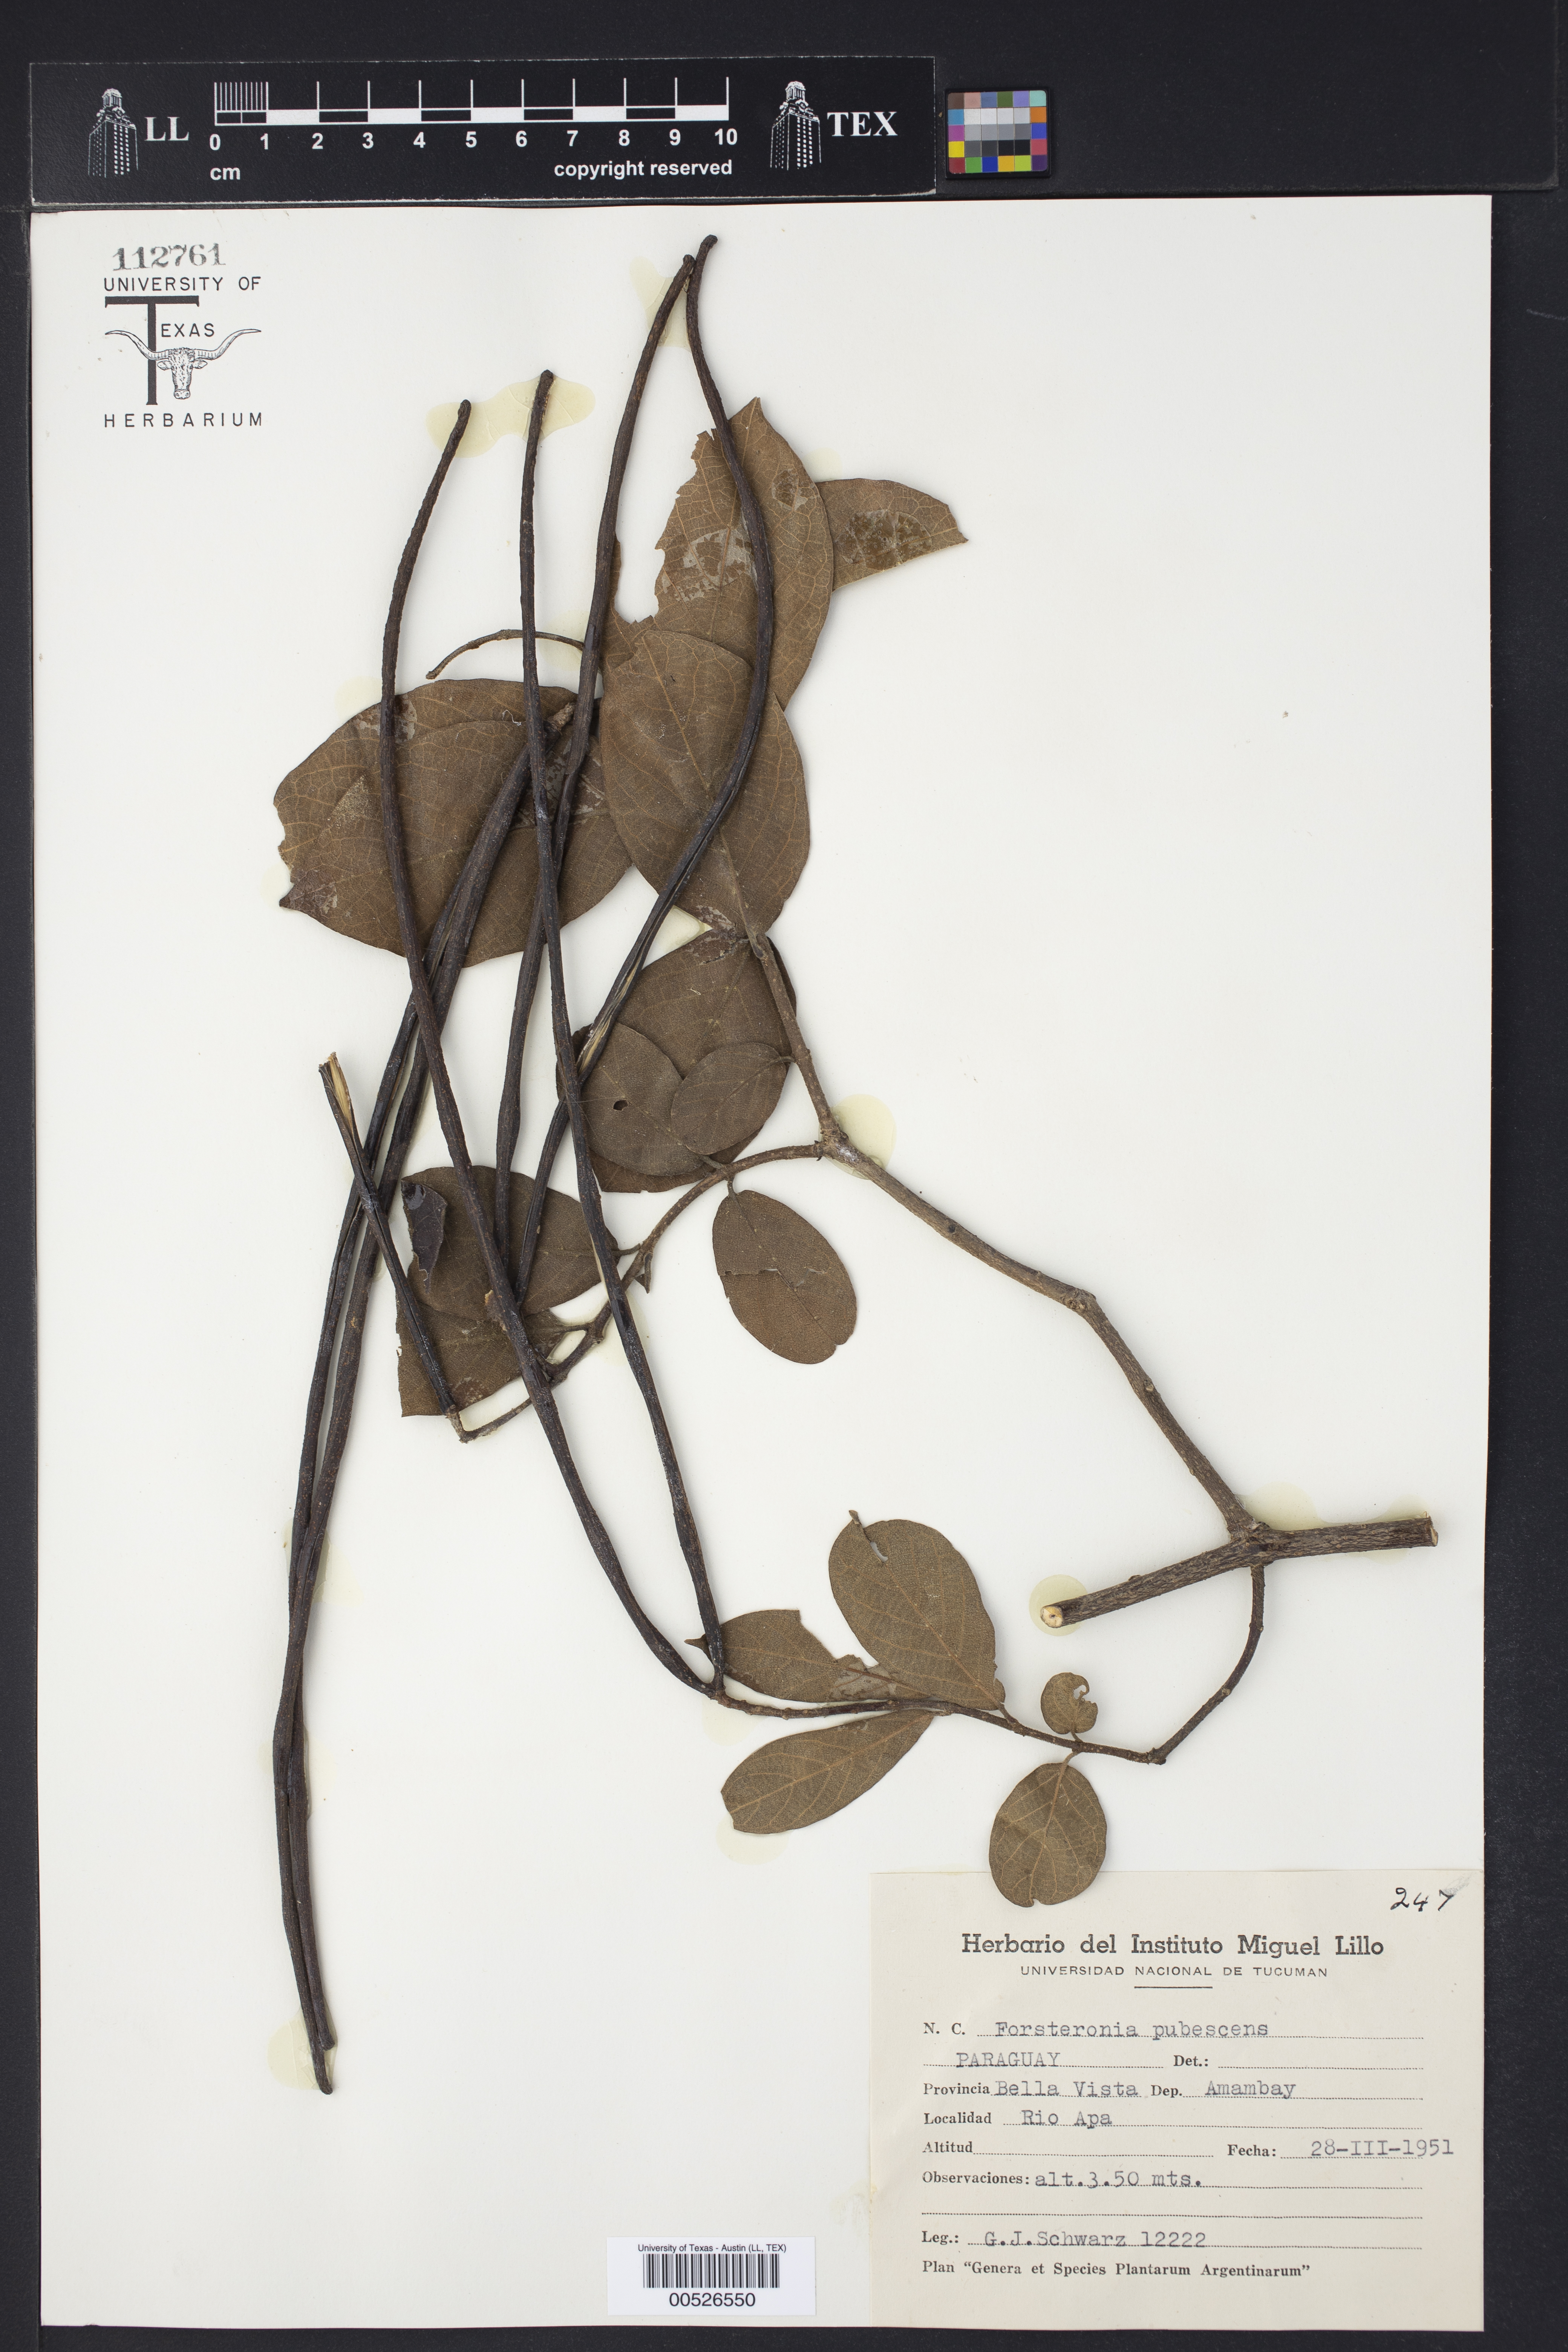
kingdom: Plantae
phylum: Tracheophyta
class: Magnoliopsida
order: Gentianales
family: Apocynaceae
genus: Forsteronia
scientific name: Forsteronia pubescens
